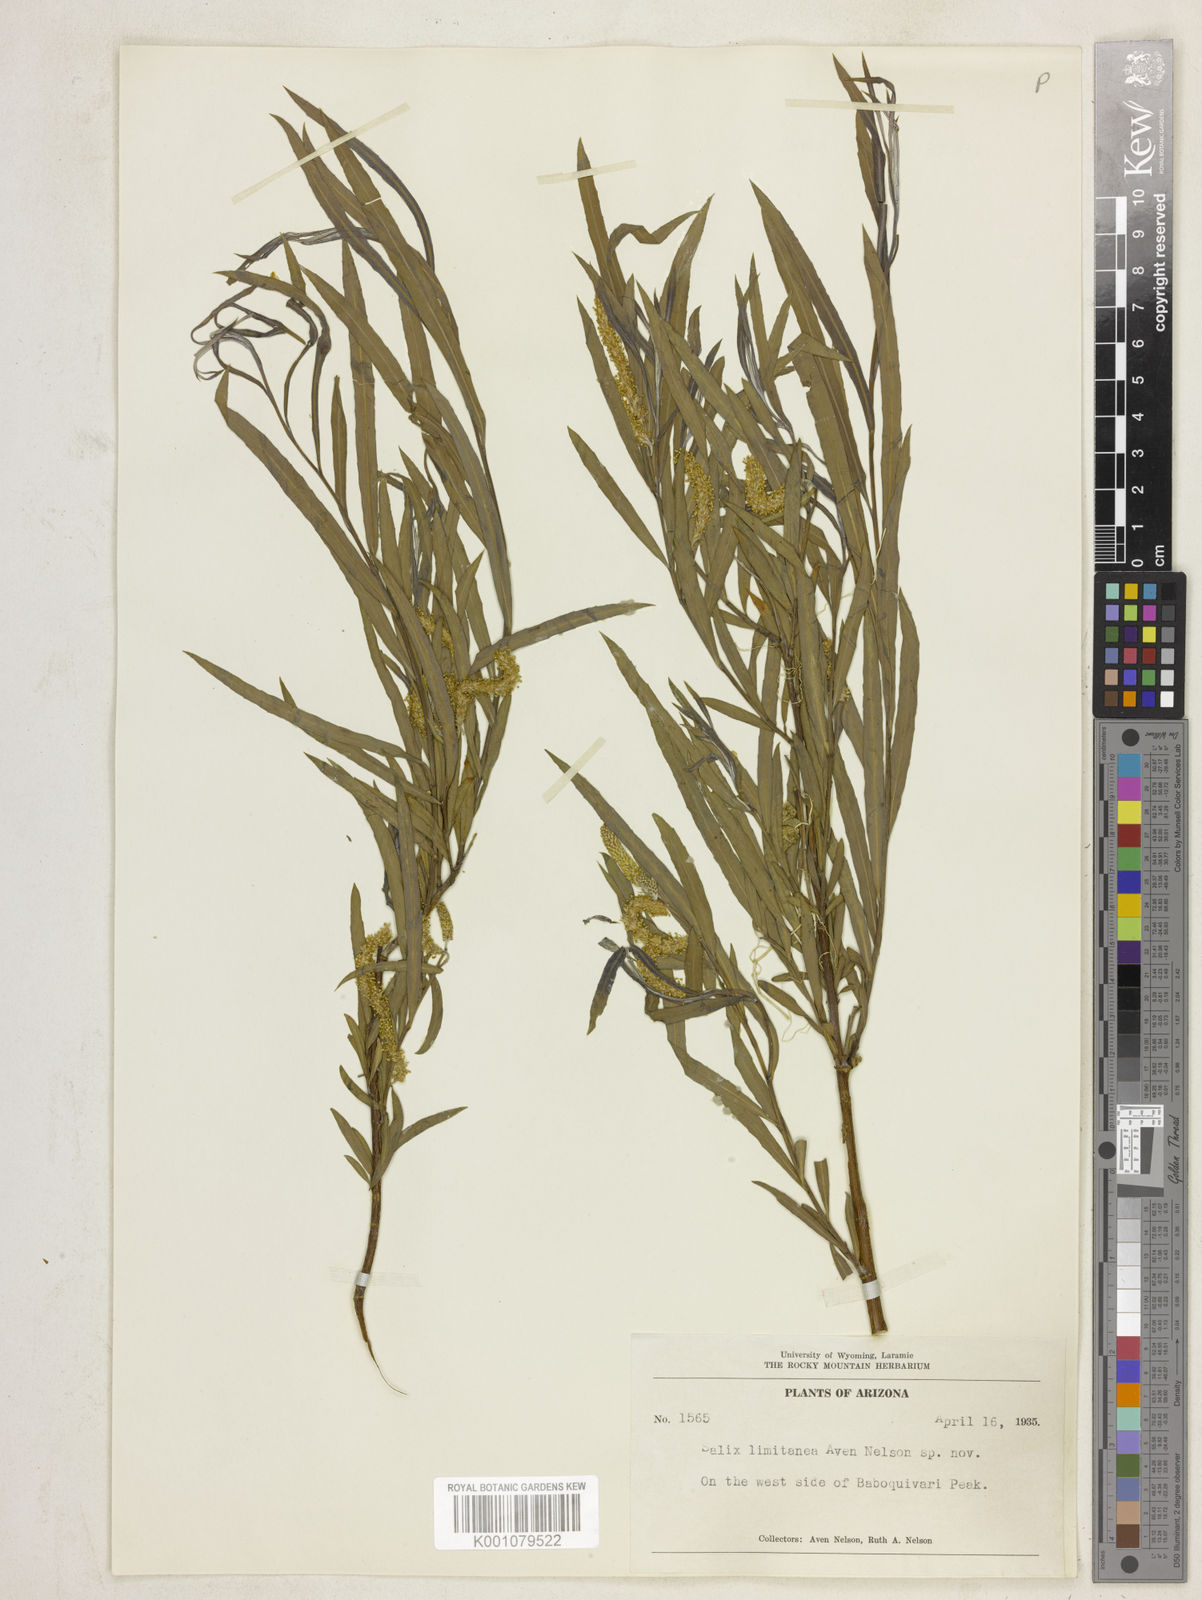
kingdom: Plantae
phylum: Tracheophyta
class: Magnoliopsida
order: Malpighiales
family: Salicaceae
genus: Salix
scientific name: Salix
